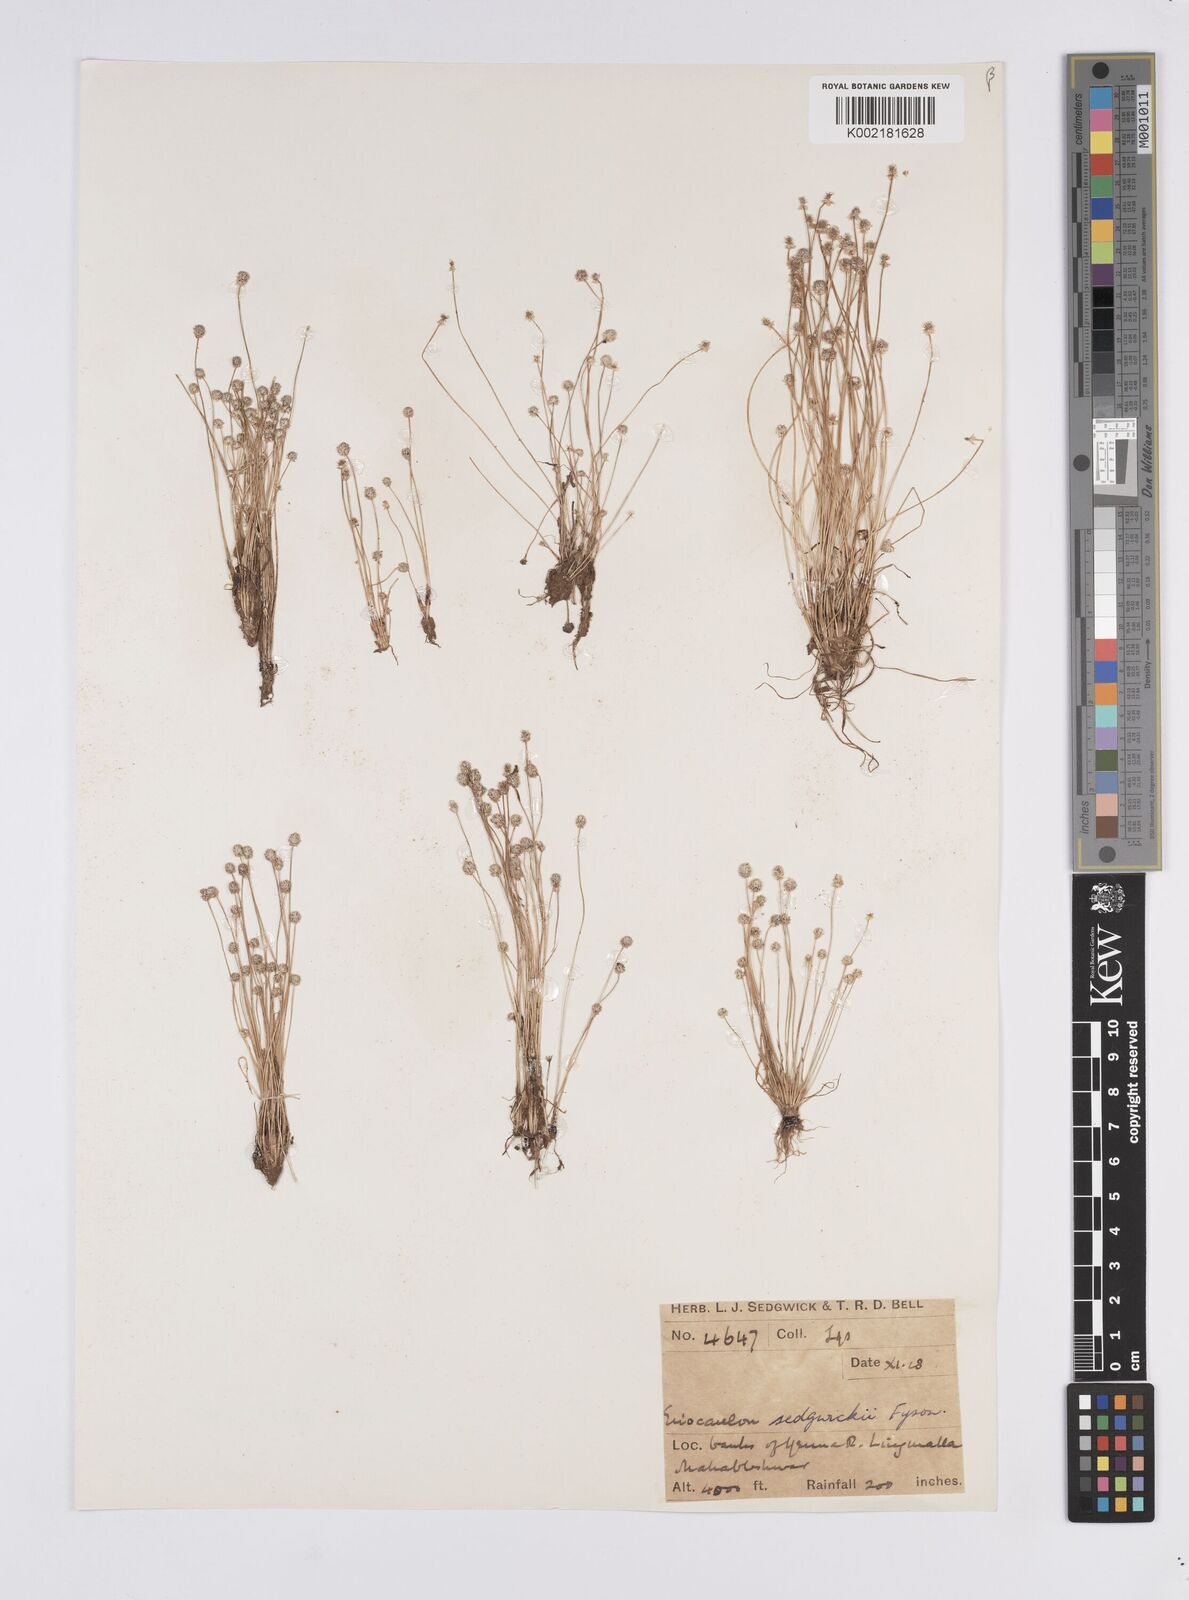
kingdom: Plantae
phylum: Tracheophyta
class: Liliopsida
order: Poales
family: Eriocaulaceae
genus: Eriocaulon
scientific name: Eriocaulon sedgwickii
